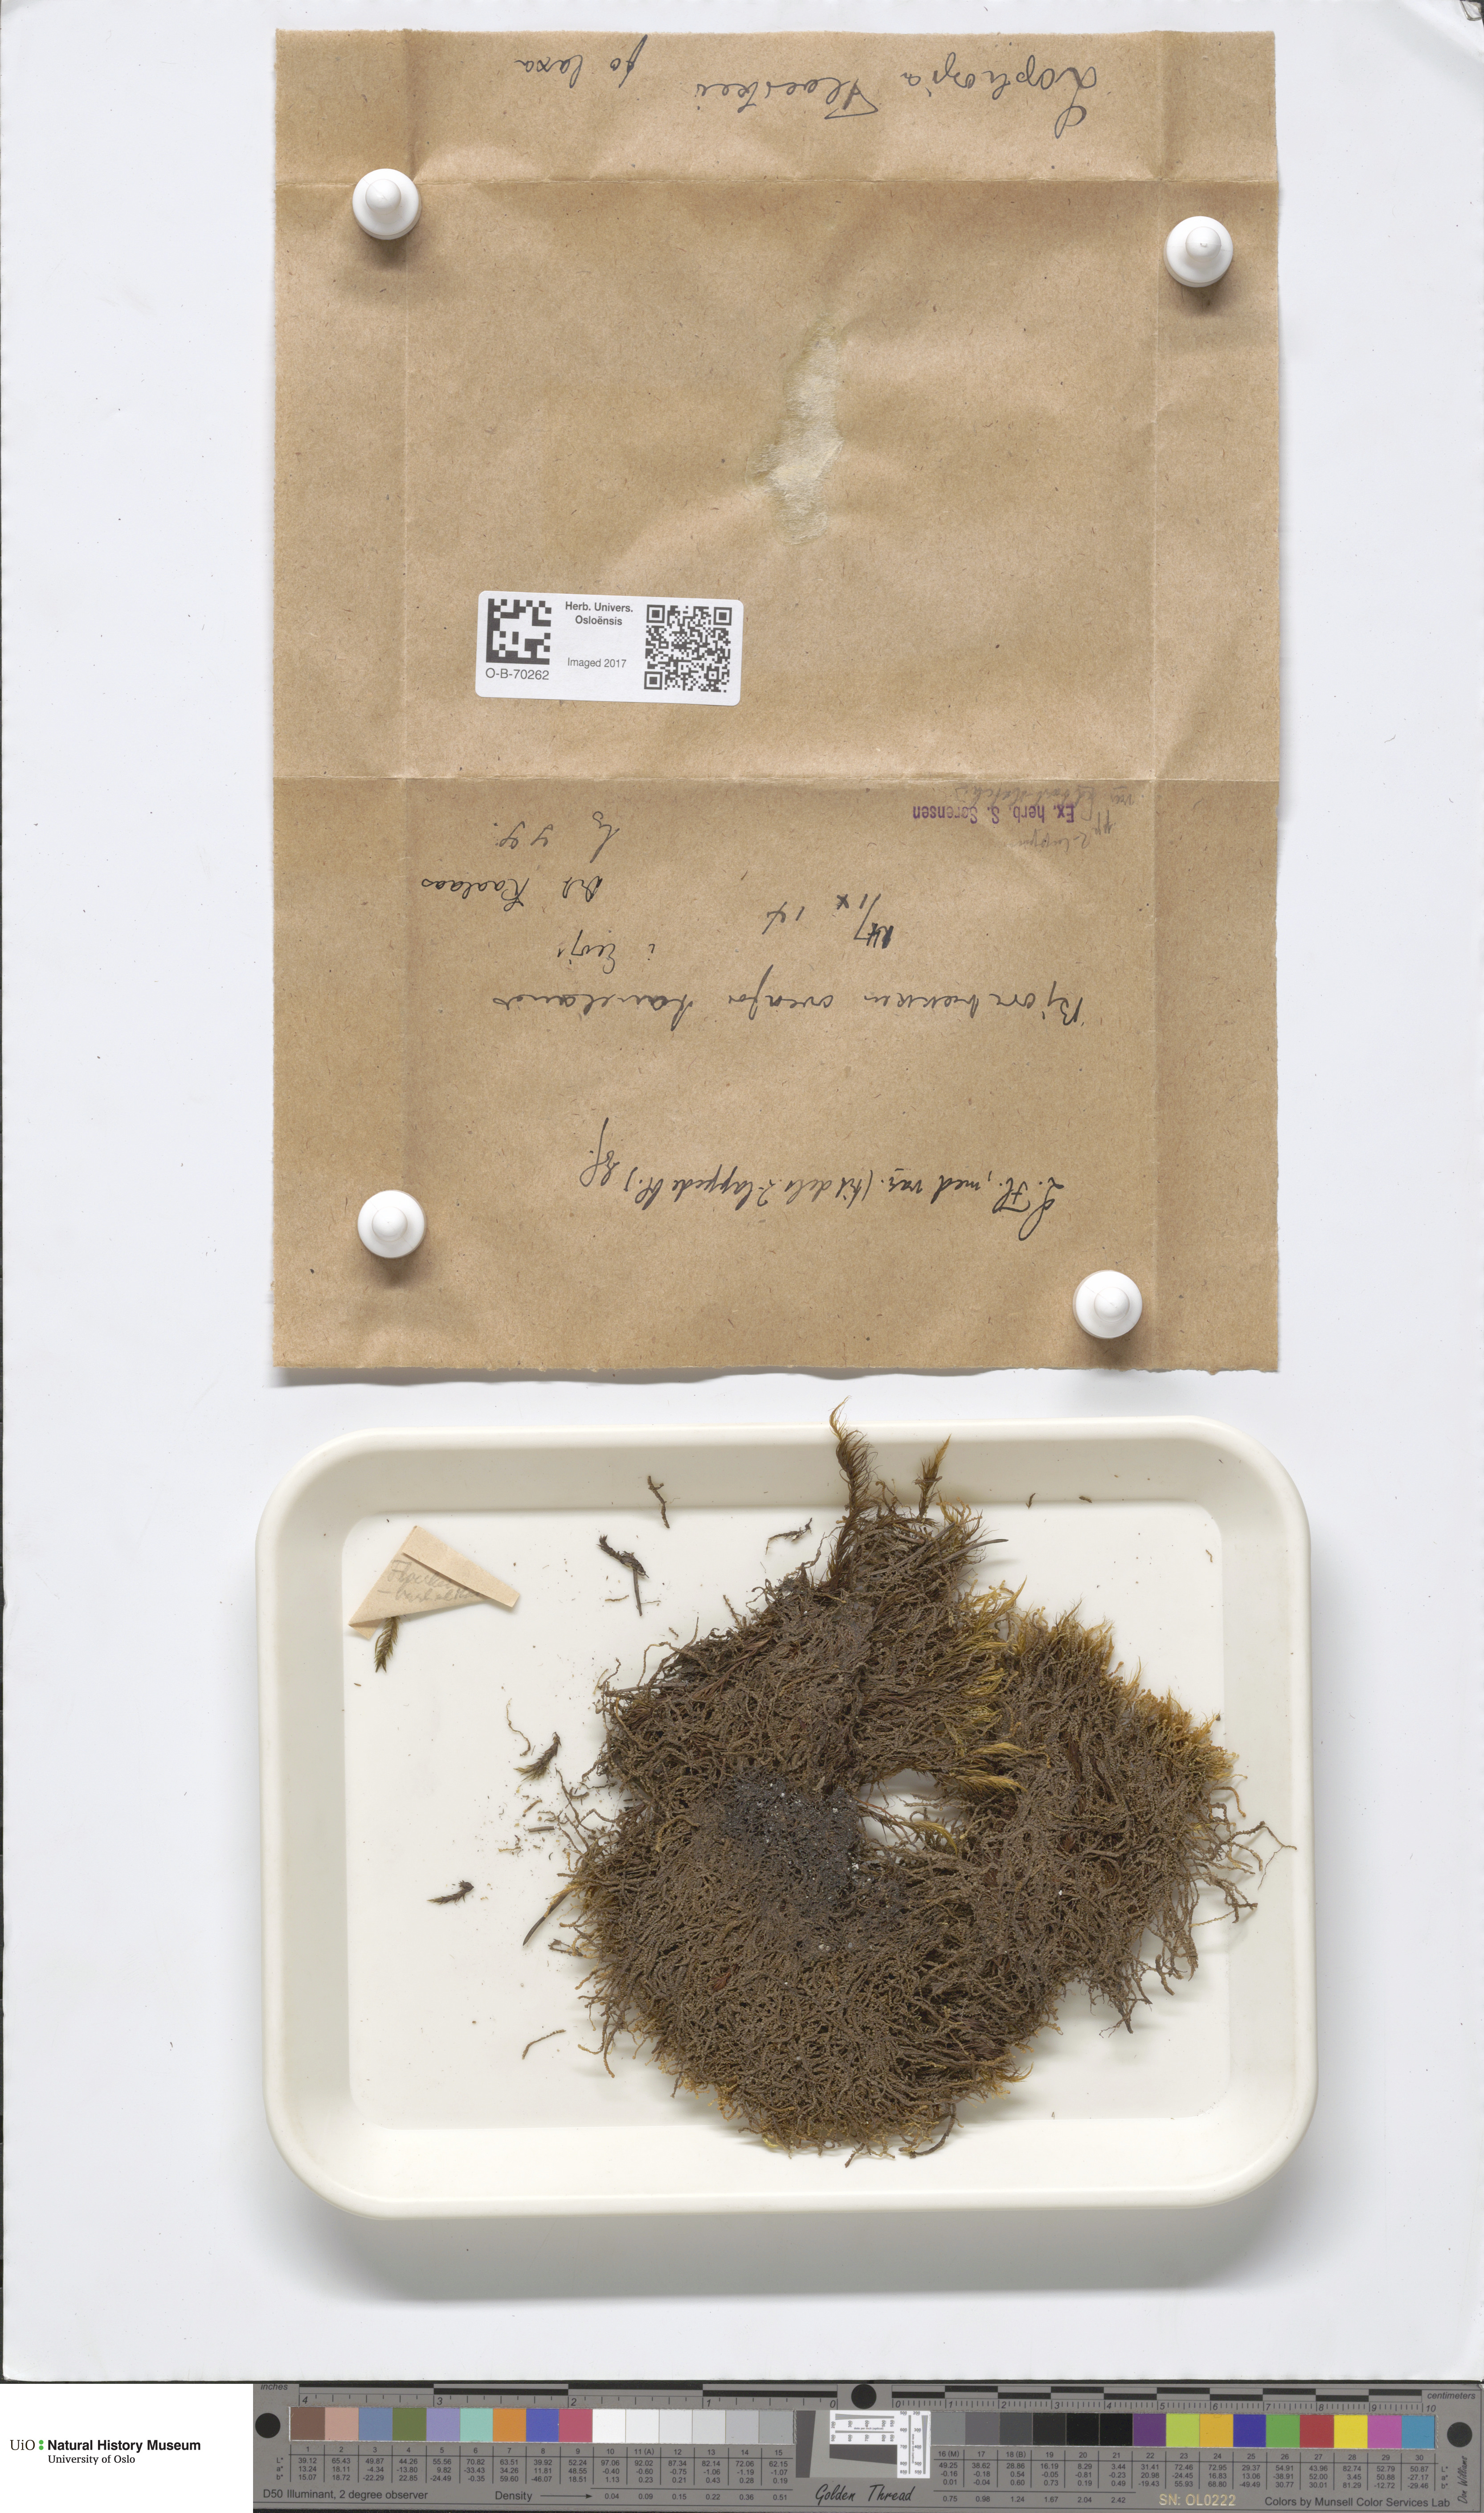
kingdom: Plantae
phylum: Marchantiophyta
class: Jungermanniopsida
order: Jungermanniales
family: Anastrophyllaceae
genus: Neoorthocaulis
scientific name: Neoorthocaulis floerkei
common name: Floerke's barbilophozia
